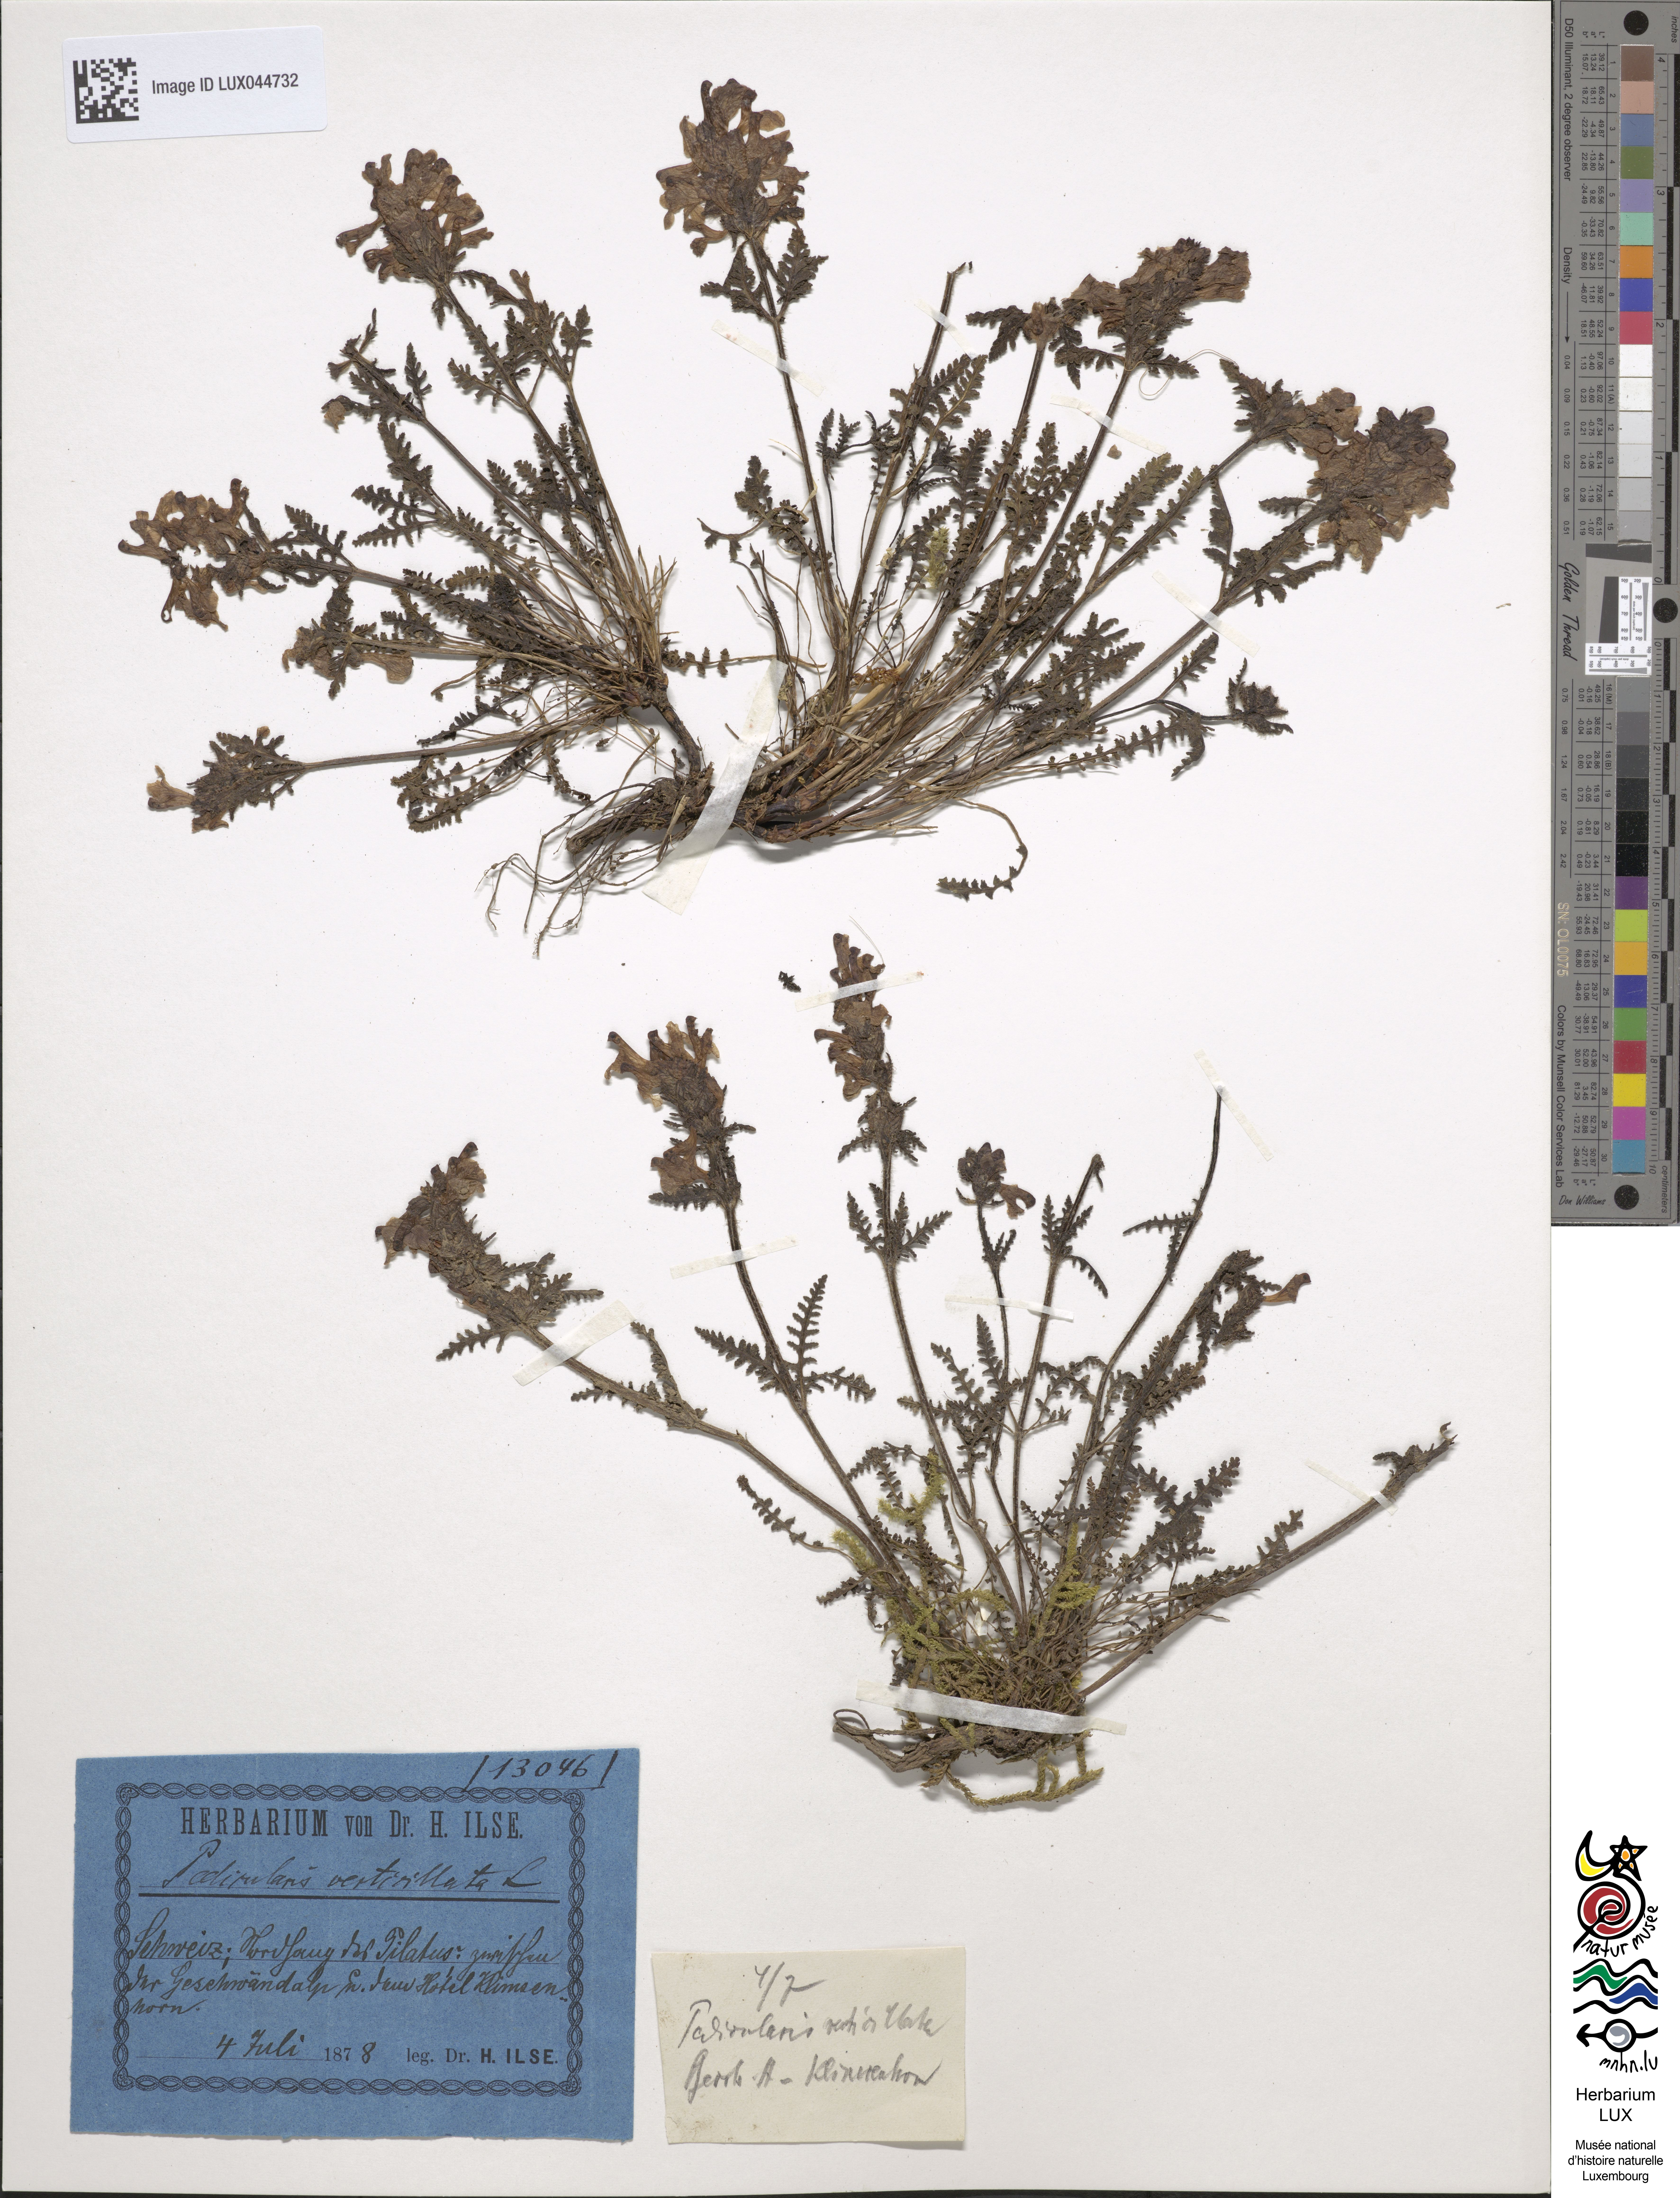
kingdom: Plantae
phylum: Tracheophyta
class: Magnoliopsida
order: Lamiales
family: Orobanchaceae
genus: Pedicularis
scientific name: Pedicularis verticillata
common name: Whorled lousewort
